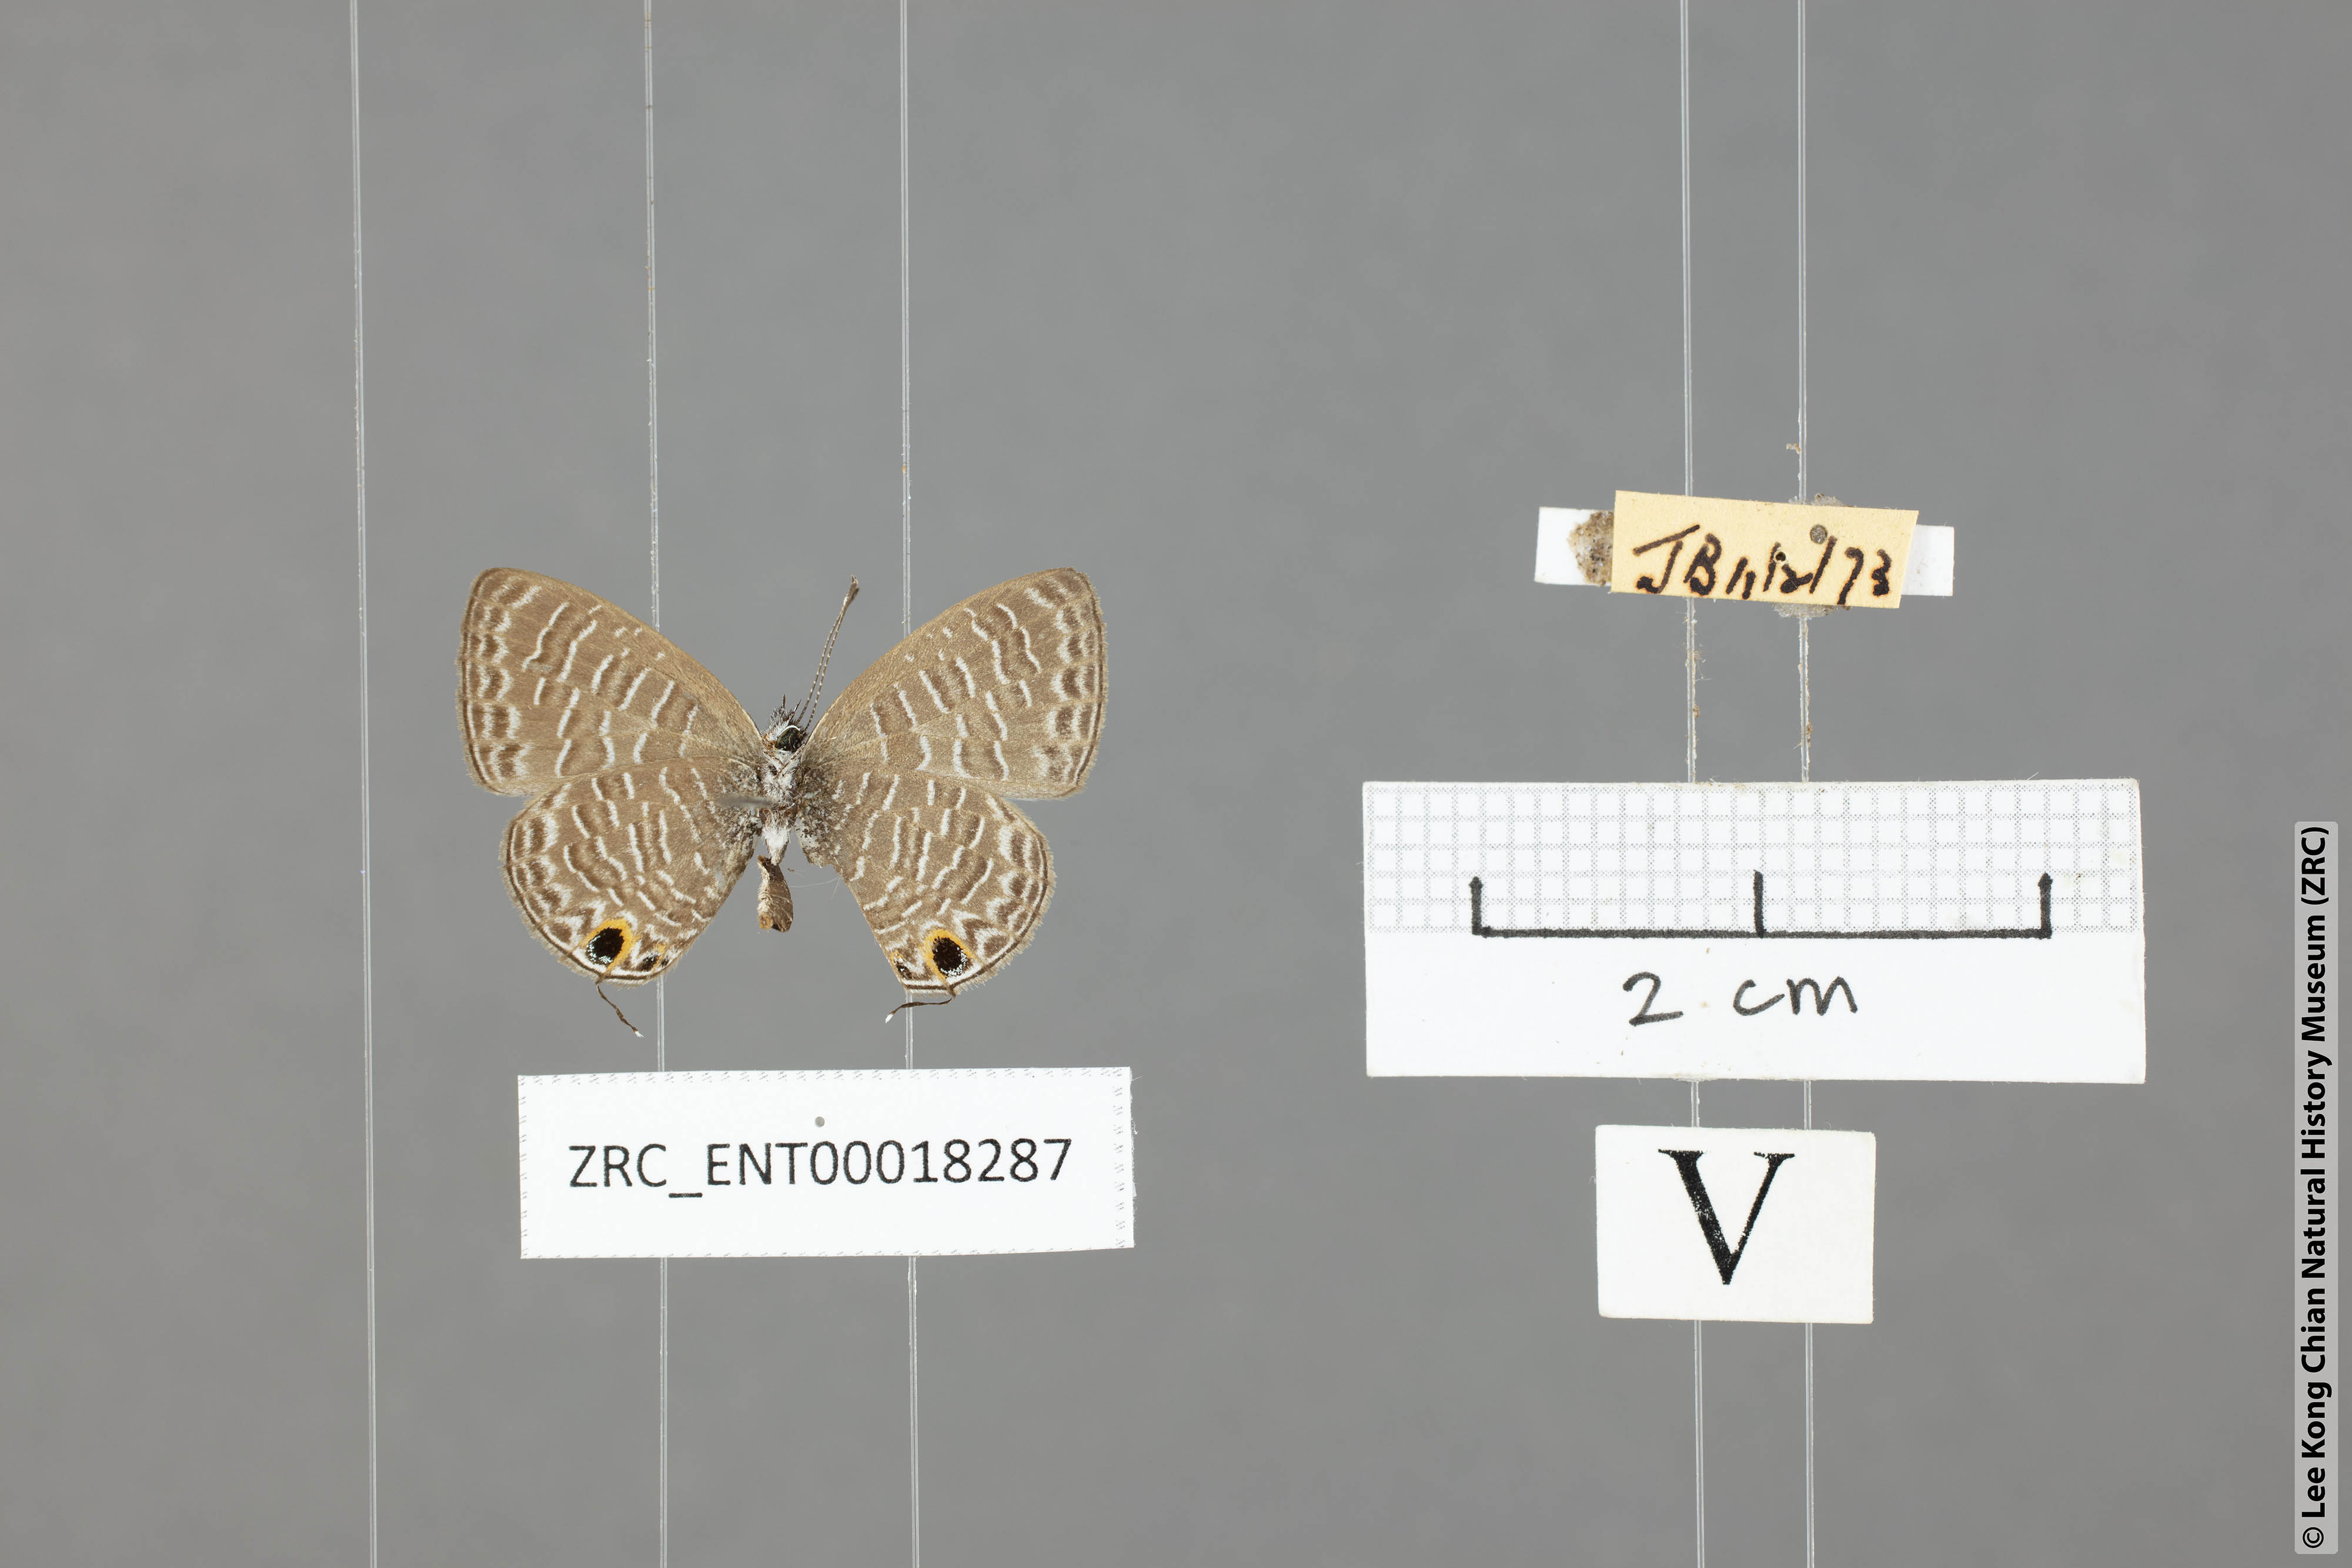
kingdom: Animalia
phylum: Arthropoda
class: Insecta
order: Lepidoptera
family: Lycaenidae
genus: Prosotas
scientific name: Prosotas aluta
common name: Barred lineblue
